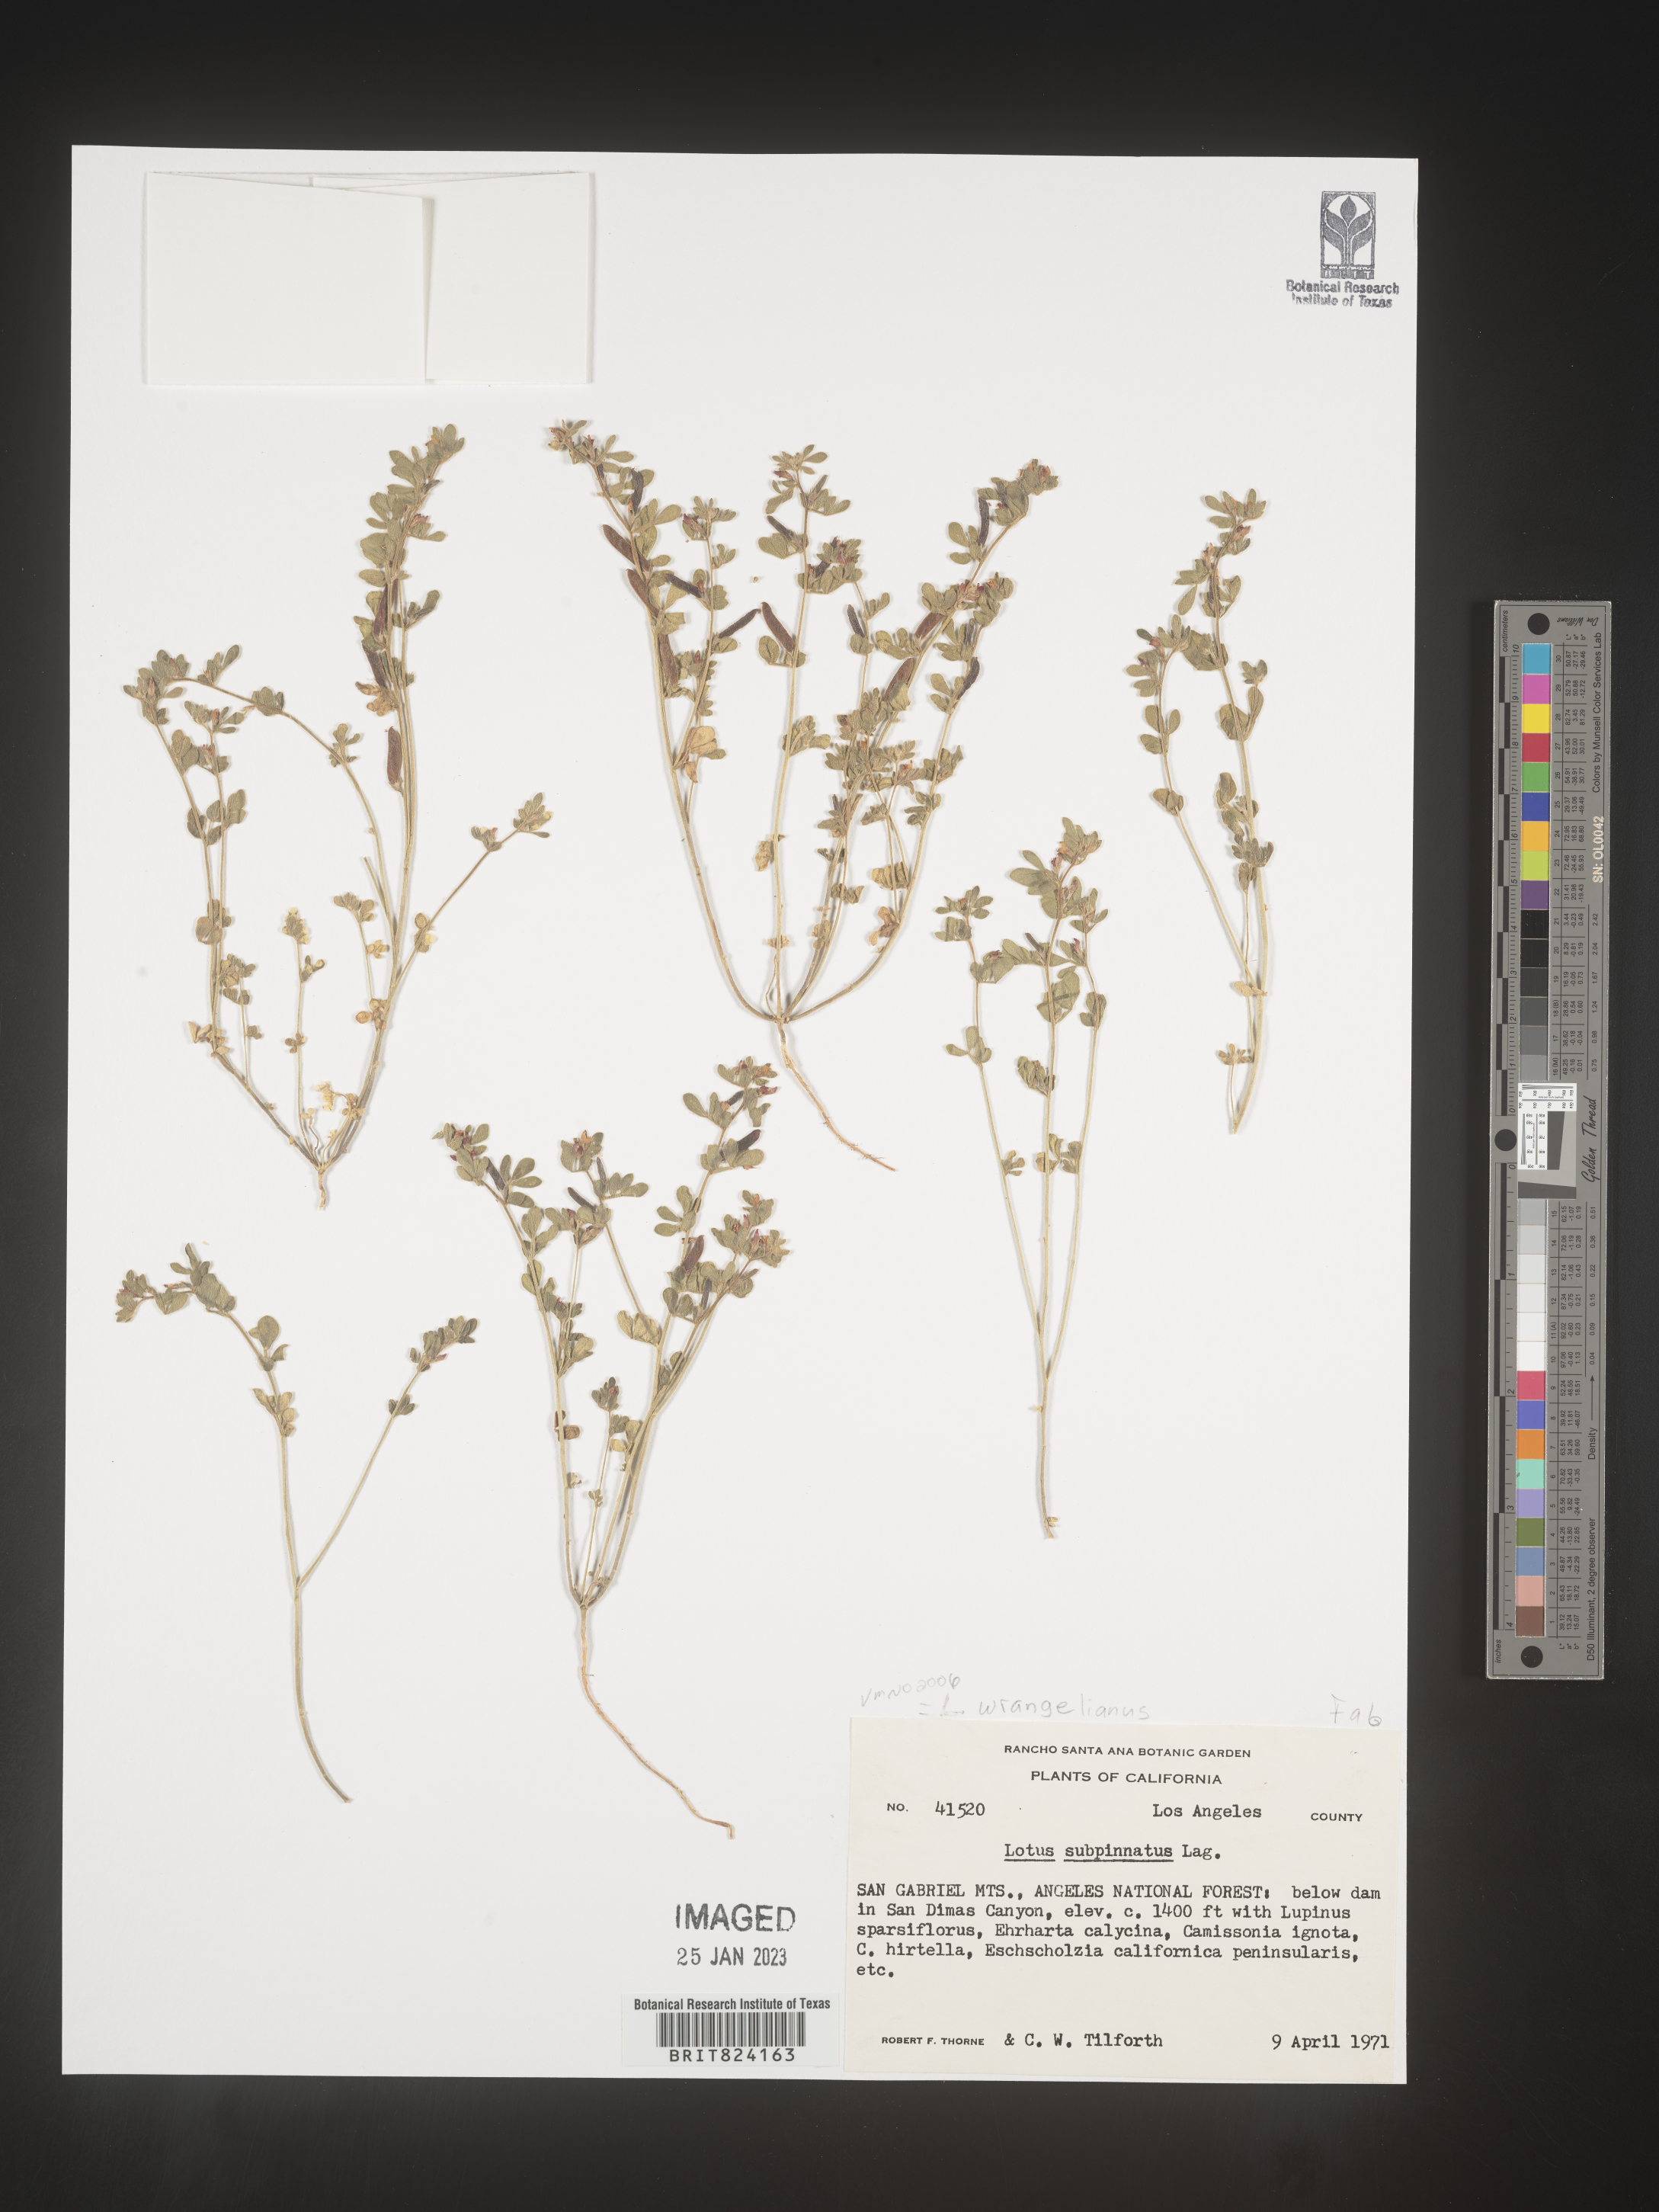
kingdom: Plantae
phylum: Tracheophyta
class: Magnoliopsida
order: Fabales
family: Fabaceae
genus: Lotus
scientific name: Lotus
